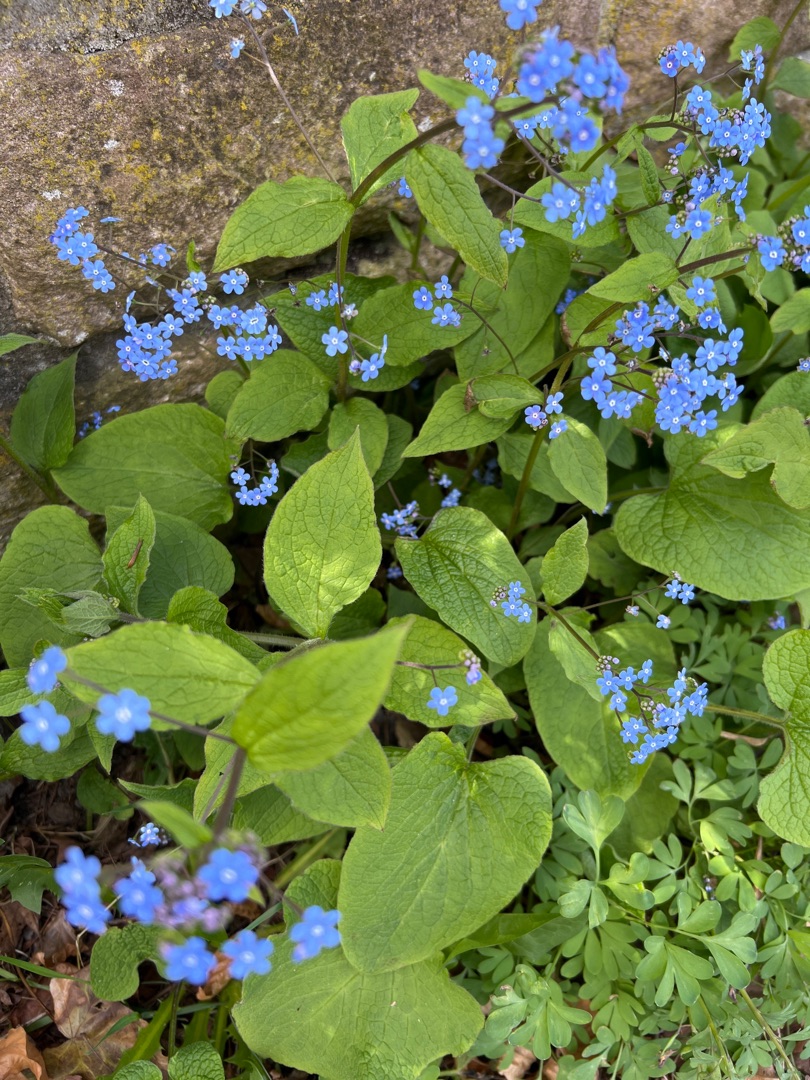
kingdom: Plantae
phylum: Tracheophyta
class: Magnoliopsida
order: Boraginales
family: Boraginaceae
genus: Brunnera
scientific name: Brunnera macrophylla
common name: Kærmindesøster
